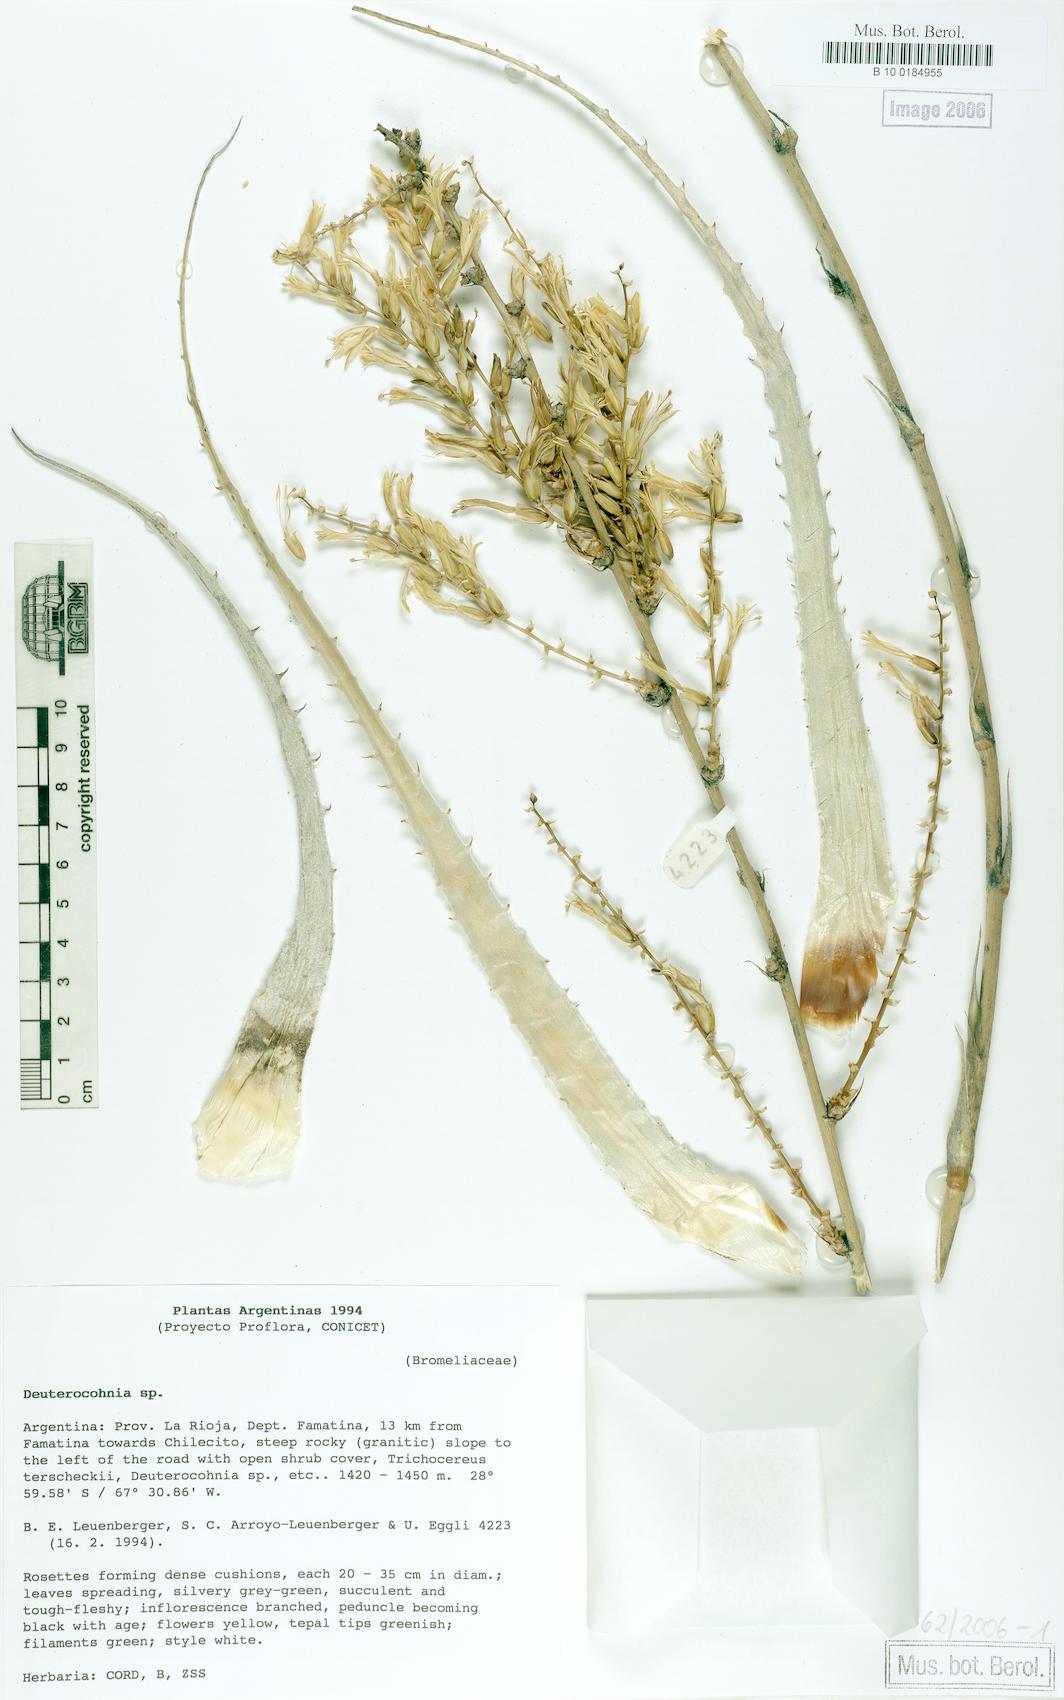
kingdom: Plantae
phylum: Tracheophyta
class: Liliopsida
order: Poales
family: Bromeliaceae
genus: Deuterocohnia
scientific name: Deuterocohnia
